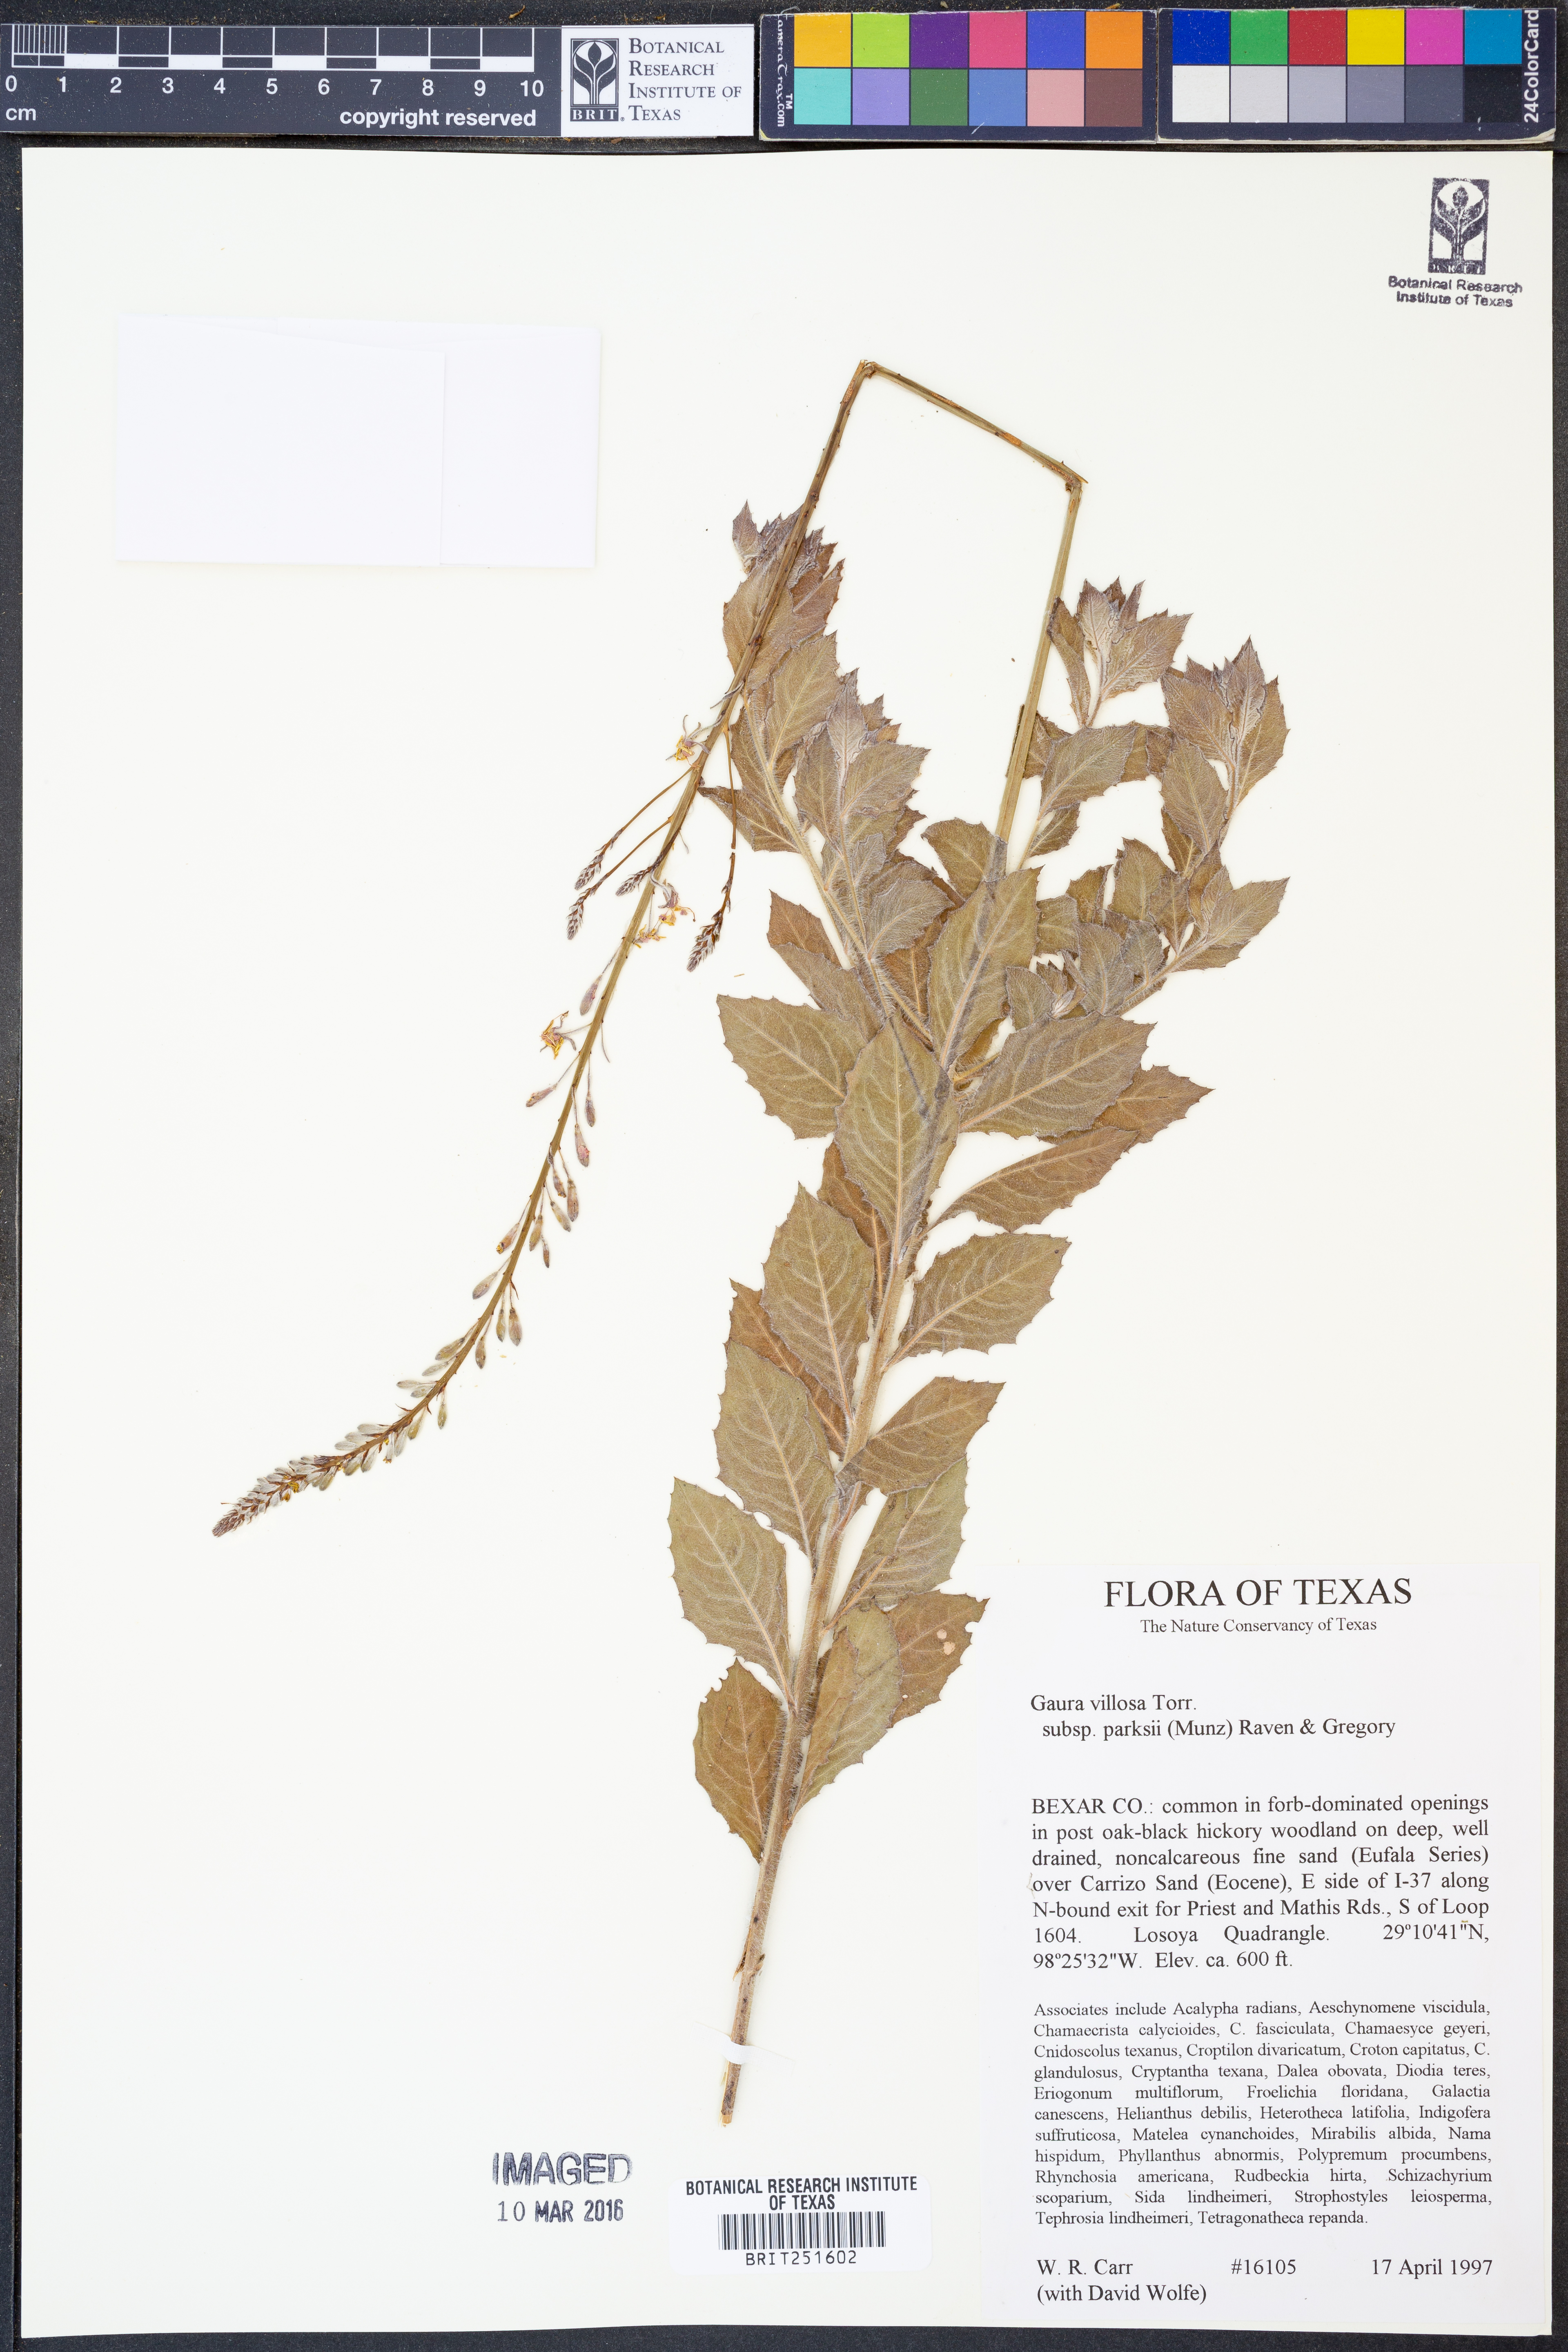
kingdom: Plantae
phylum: Tracheophyta
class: Magnoliopsida
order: Myrtales
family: Onagraceae
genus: Oenothera
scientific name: Oenothera cinerea
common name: Woolly beeblossom
